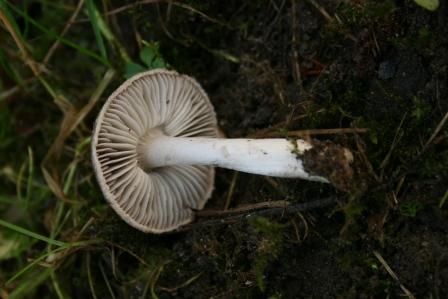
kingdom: Fungi
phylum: Basidiomycota
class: Agaricomycetes
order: Agaricales
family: Tricholomataceae
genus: Tricholoma
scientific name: Tricholoma terreum
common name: jordfarvet ridderhat
